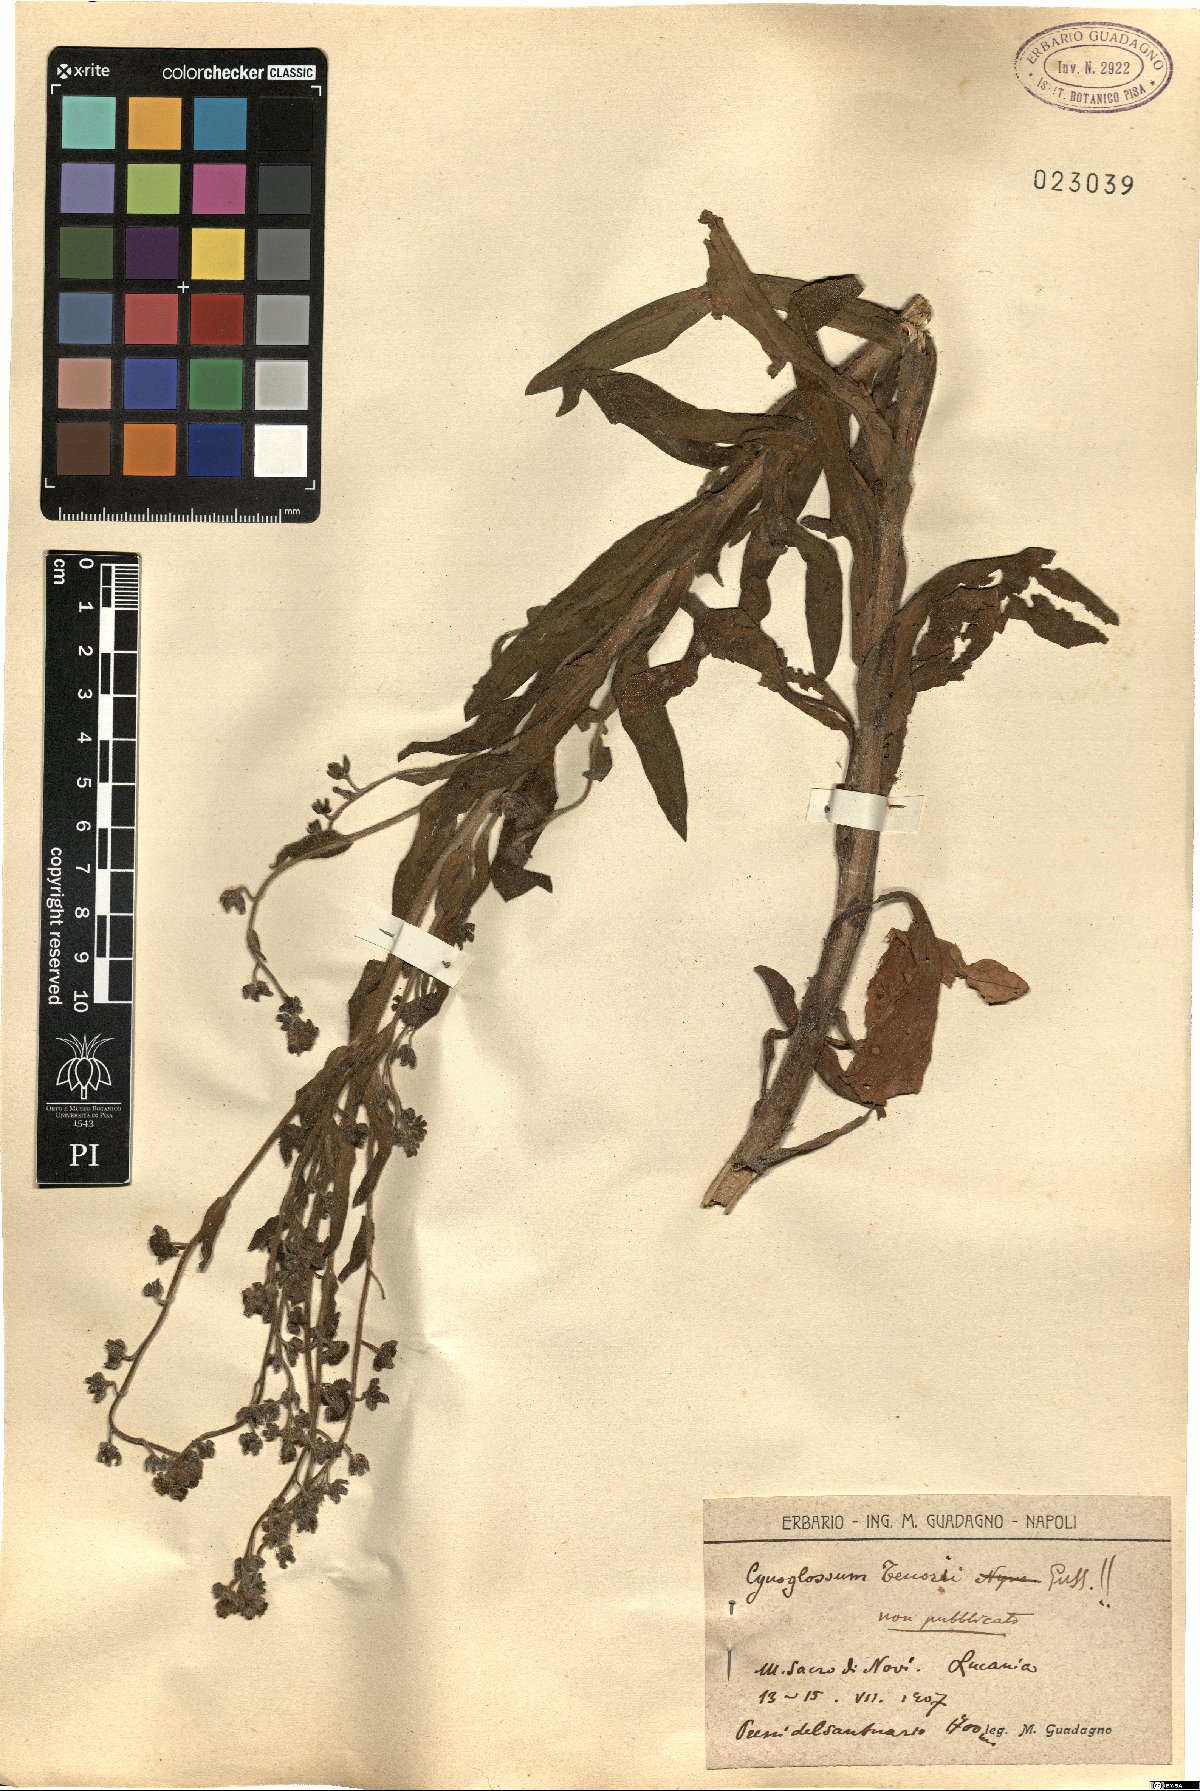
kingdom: Plantae
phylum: Tracheophyta
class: Magnoliopsida
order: Boraginales
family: Boraginaceae
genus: Cynoglossum
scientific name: Cynoglossum nebrodense
